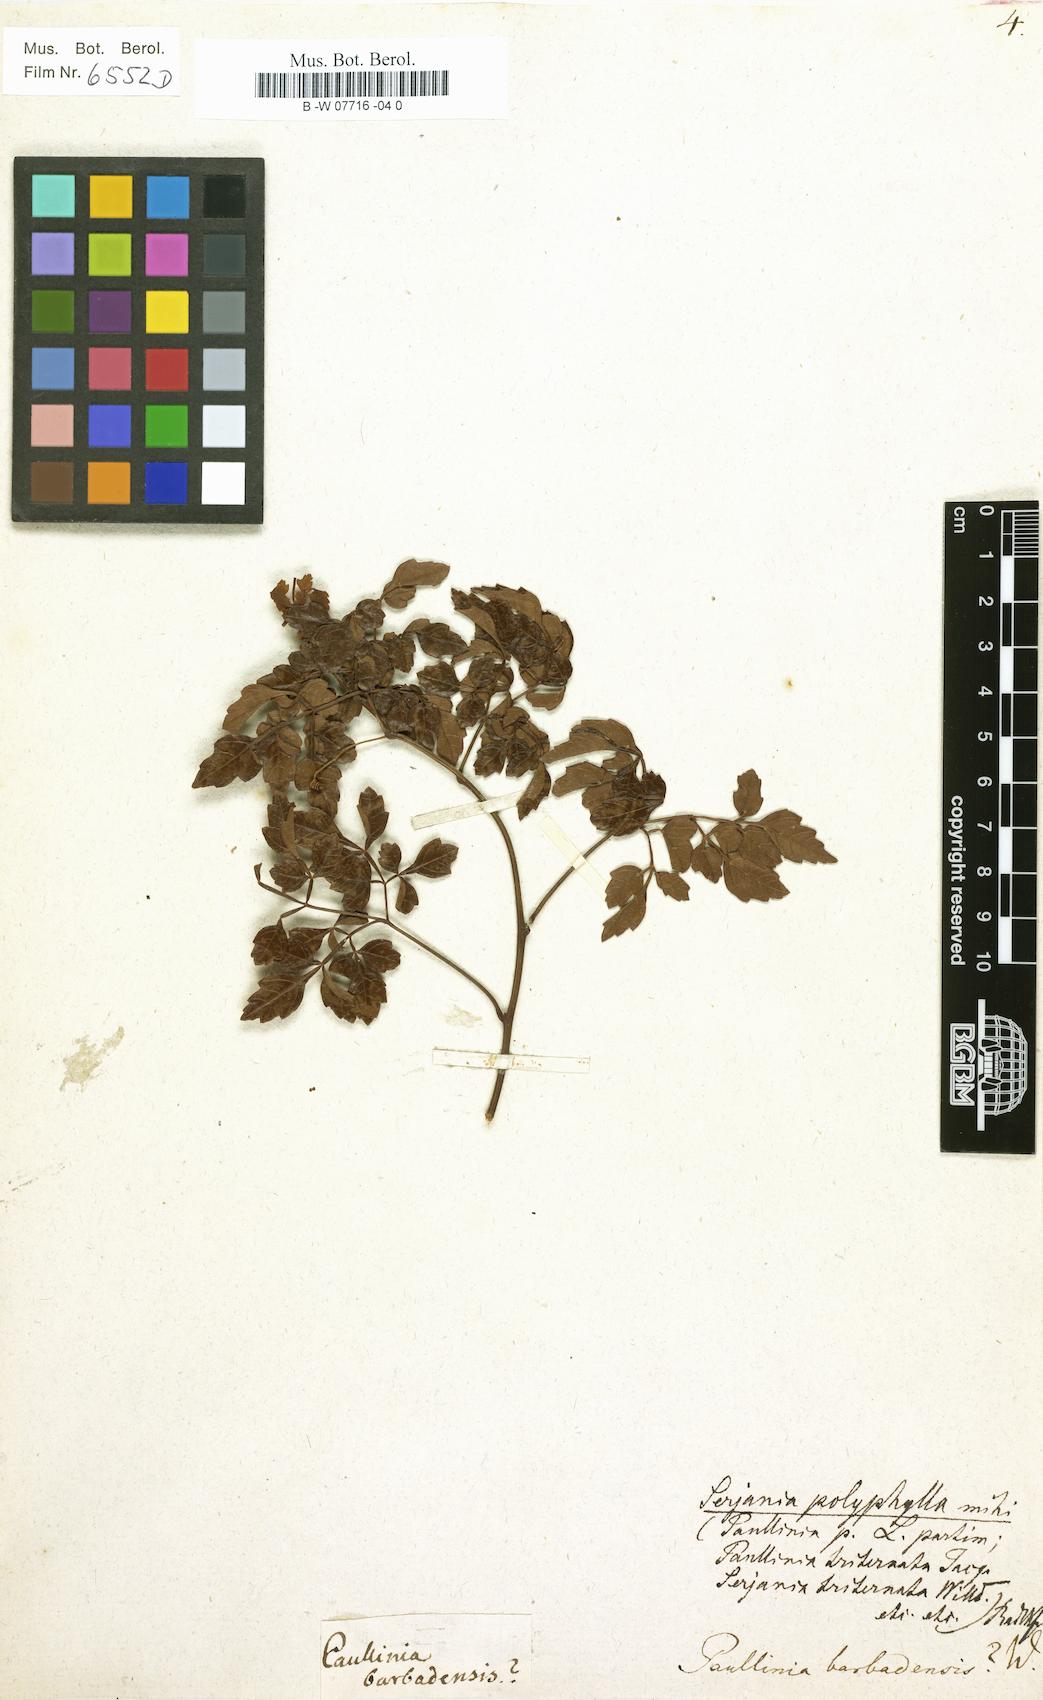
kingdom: Plantae
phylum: Tracheophyta
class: Magnoliopsida
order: Sapindales
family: Sapindaceae
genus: Paullinia
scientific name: Paullinia barbadensis
